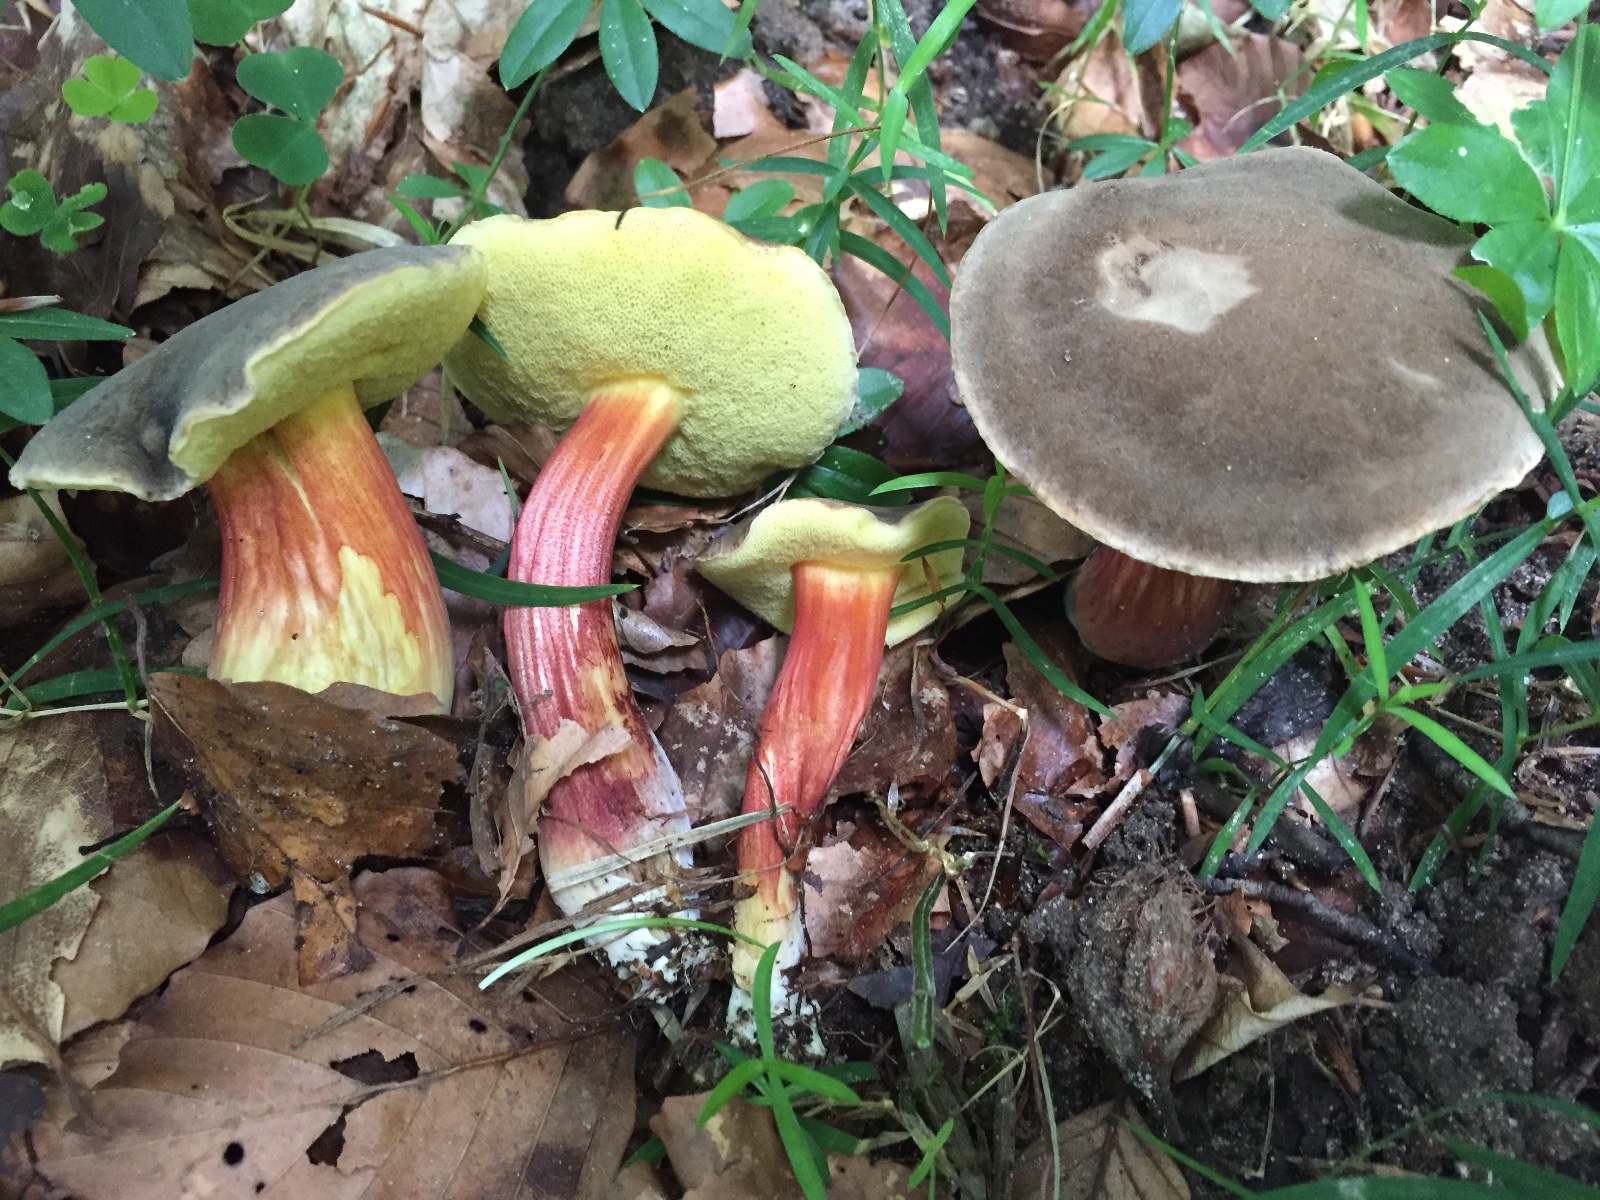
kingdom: Fungi
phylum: Basidiomycota
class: Agaricomycetes
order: Boletales
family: Boletaceae
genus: Xerocomellus
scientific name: Xerocomellus chrysenteron
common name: rødsprukken rørhat
